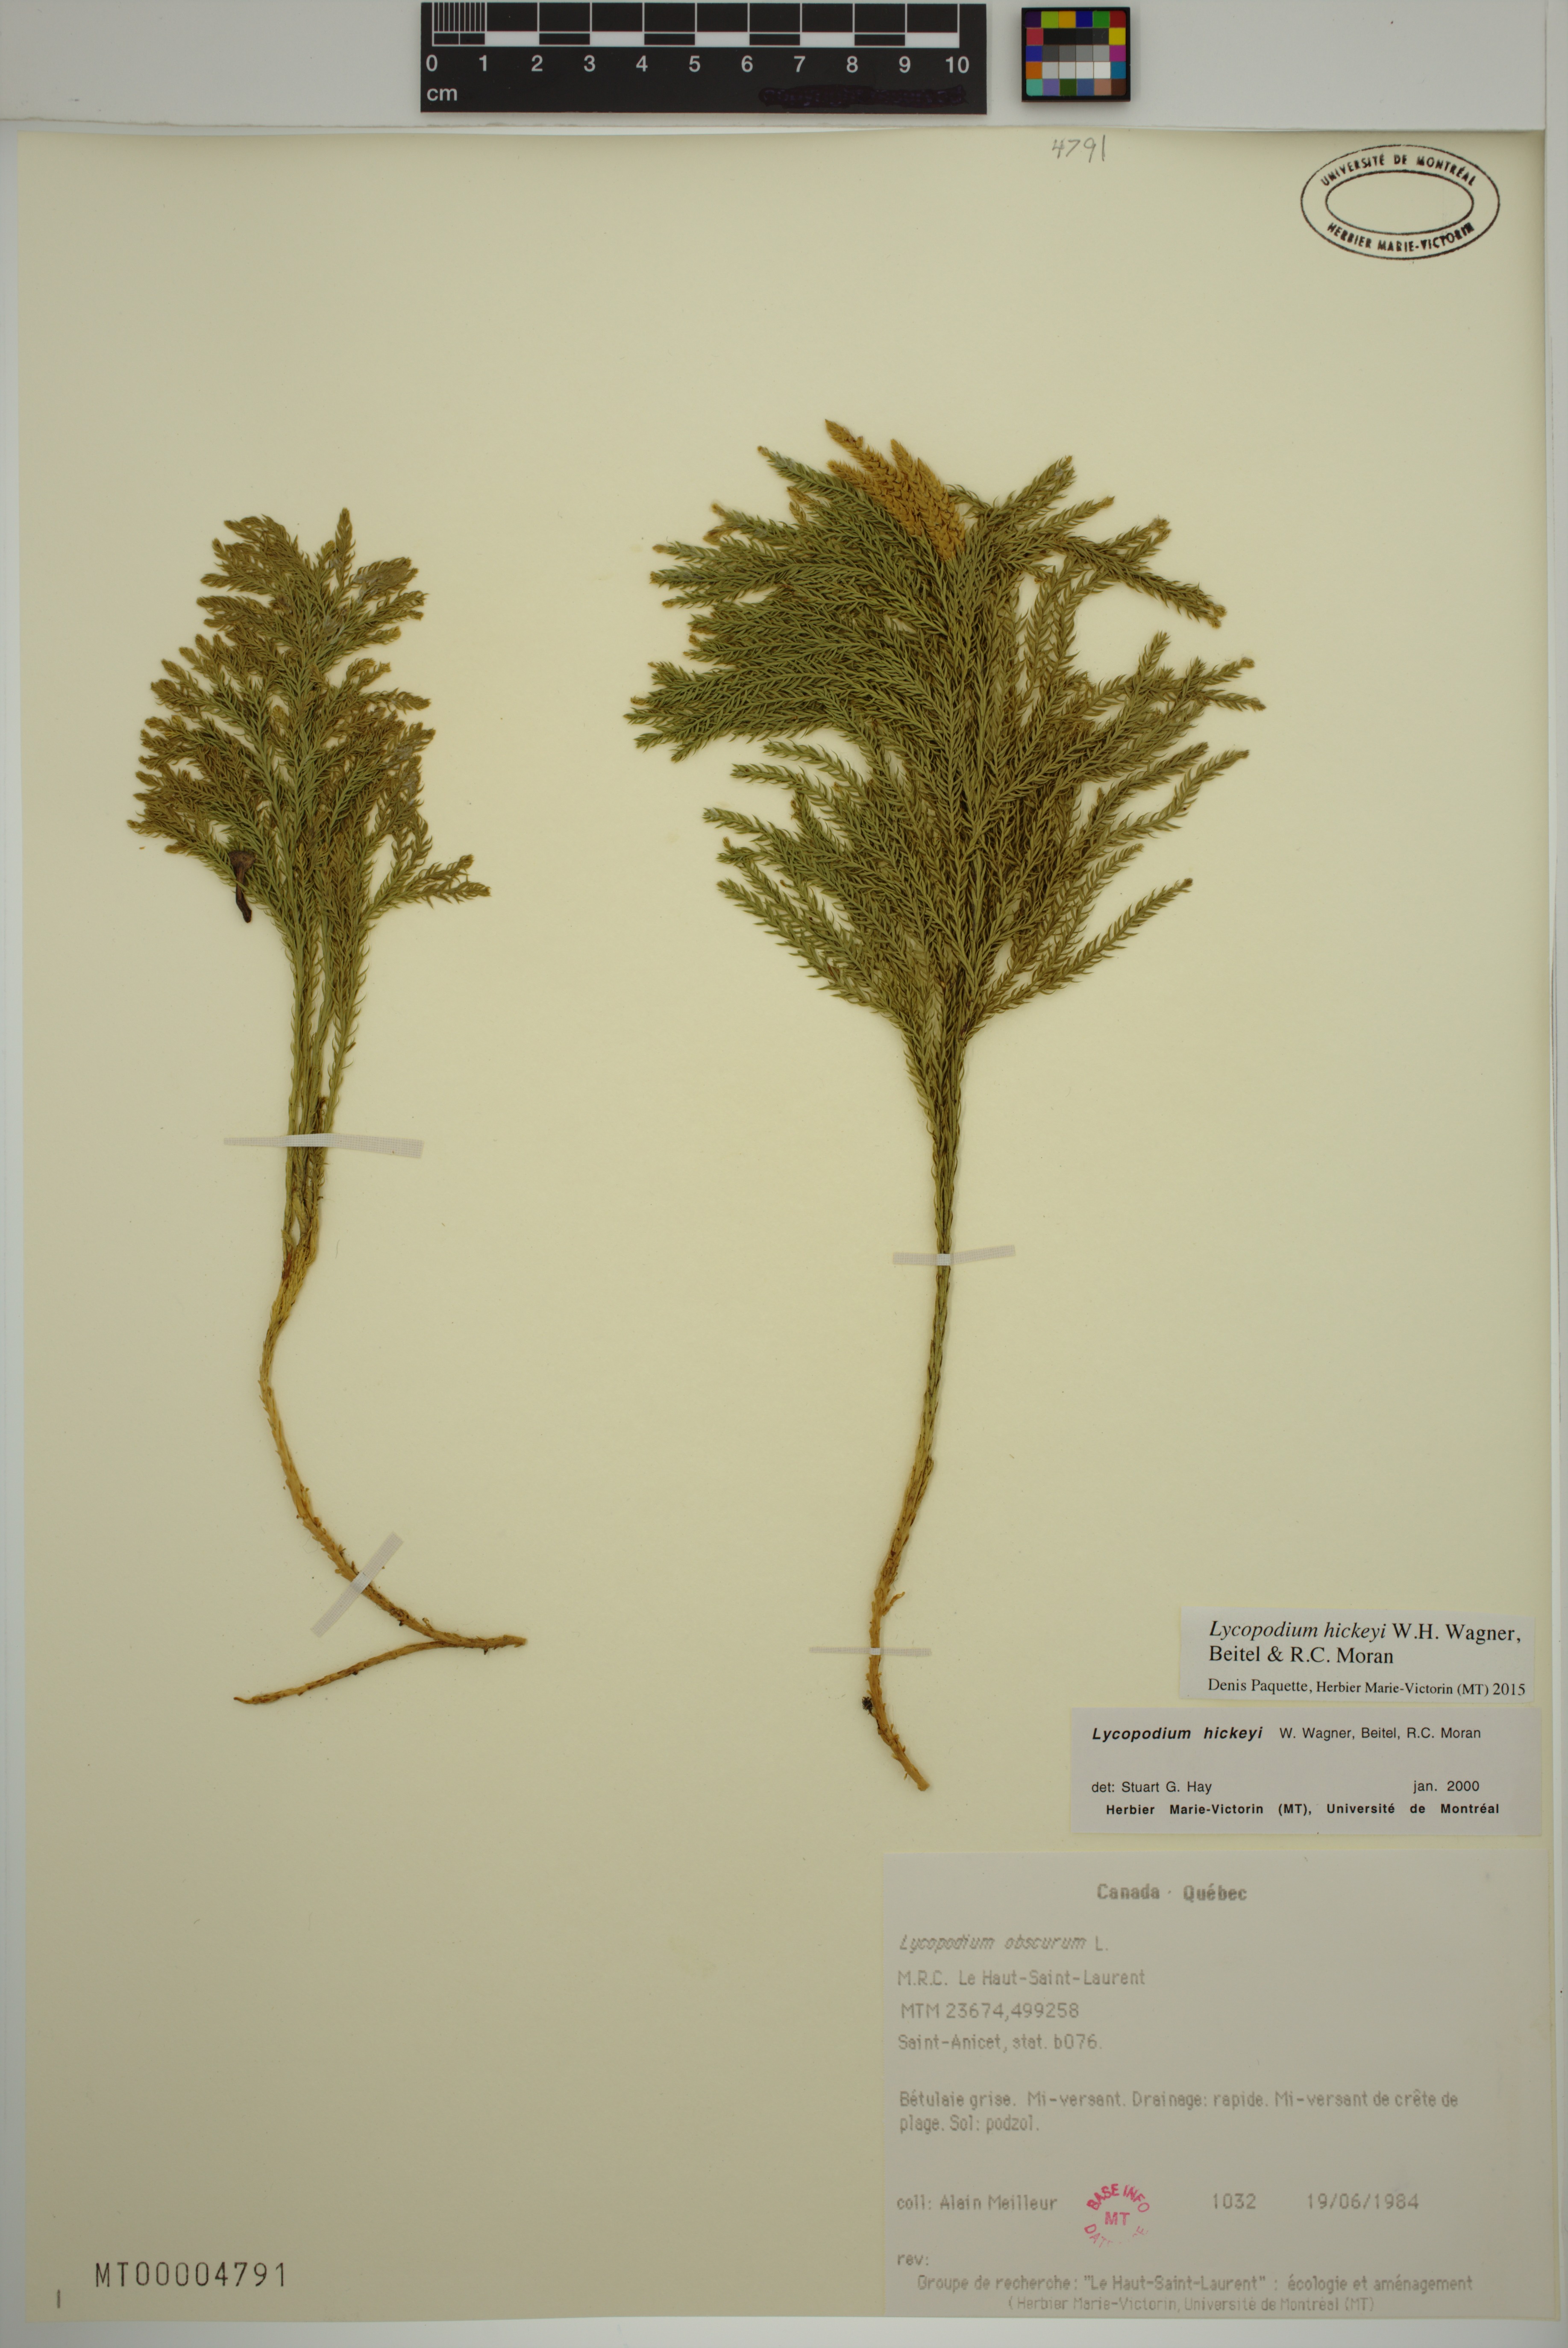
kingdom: Plantae
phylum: Tracheophyta
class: Lycopodiopsida
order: Lycopodiales
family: Lycopodiaceae
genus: Dendrolycopodium
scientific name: Dendrolycopodium hickeyi
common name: Hickey's clubmoss
